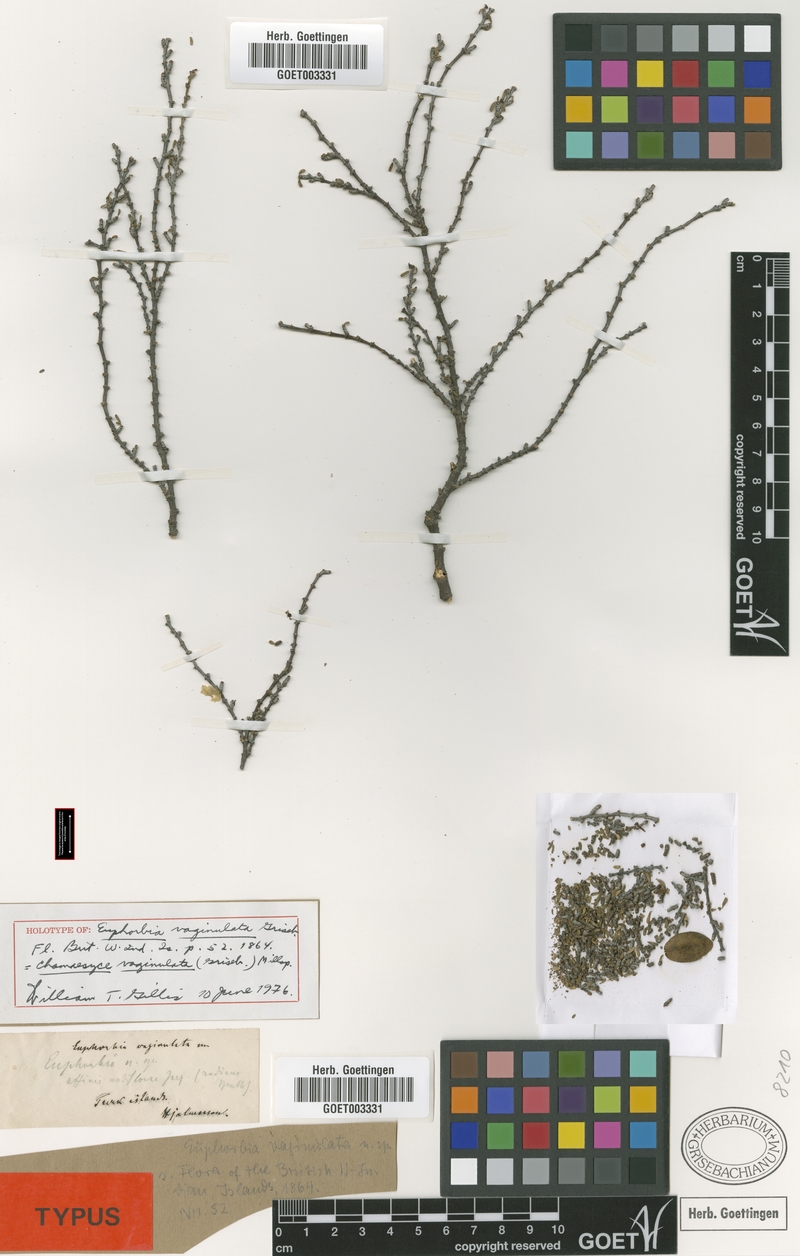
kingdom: Plantae
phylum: Tracheophyta
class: Magnoliopsida
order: Malpighiales
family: Euphorbiaceae
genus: Euphorbia
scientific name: Euphorbia vaginulata
